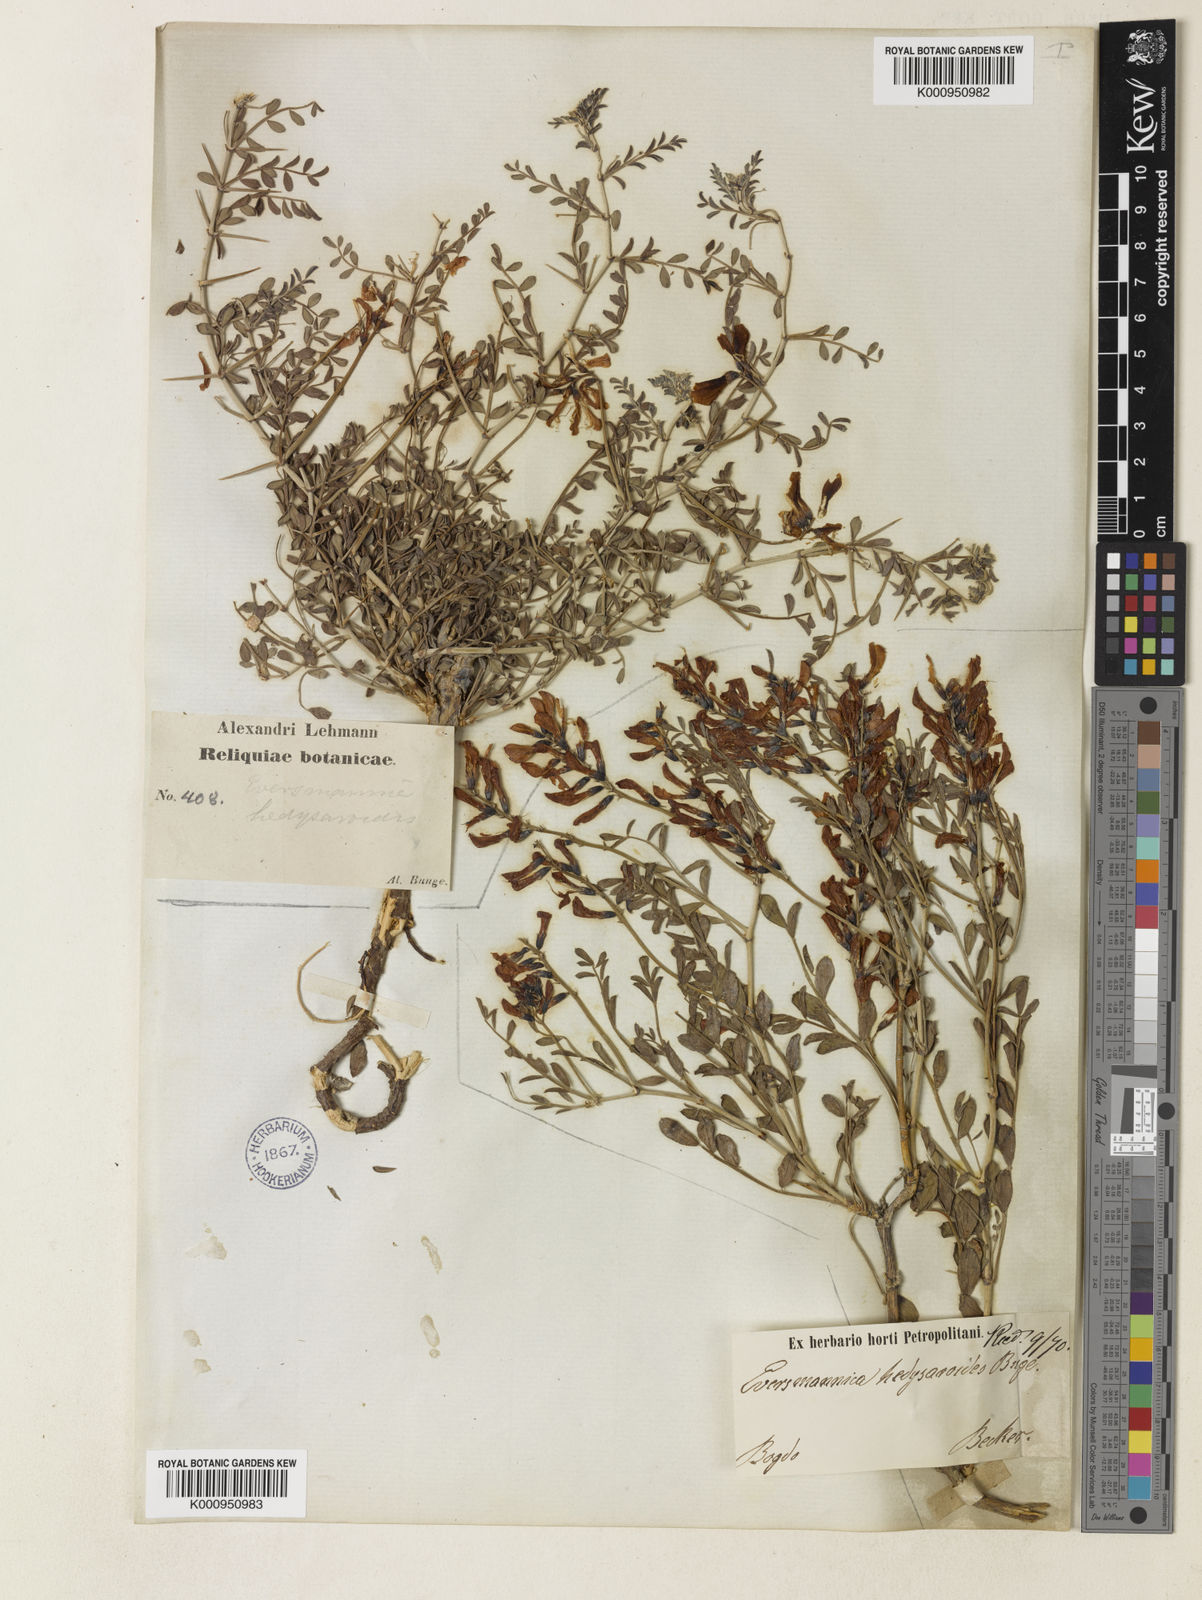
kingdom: Plantae
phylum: Tracheophyta
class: Magnoliopsida
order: Fabales
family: Fabaceae
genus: Eversmannia
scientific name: Eversmannia subspinosa
